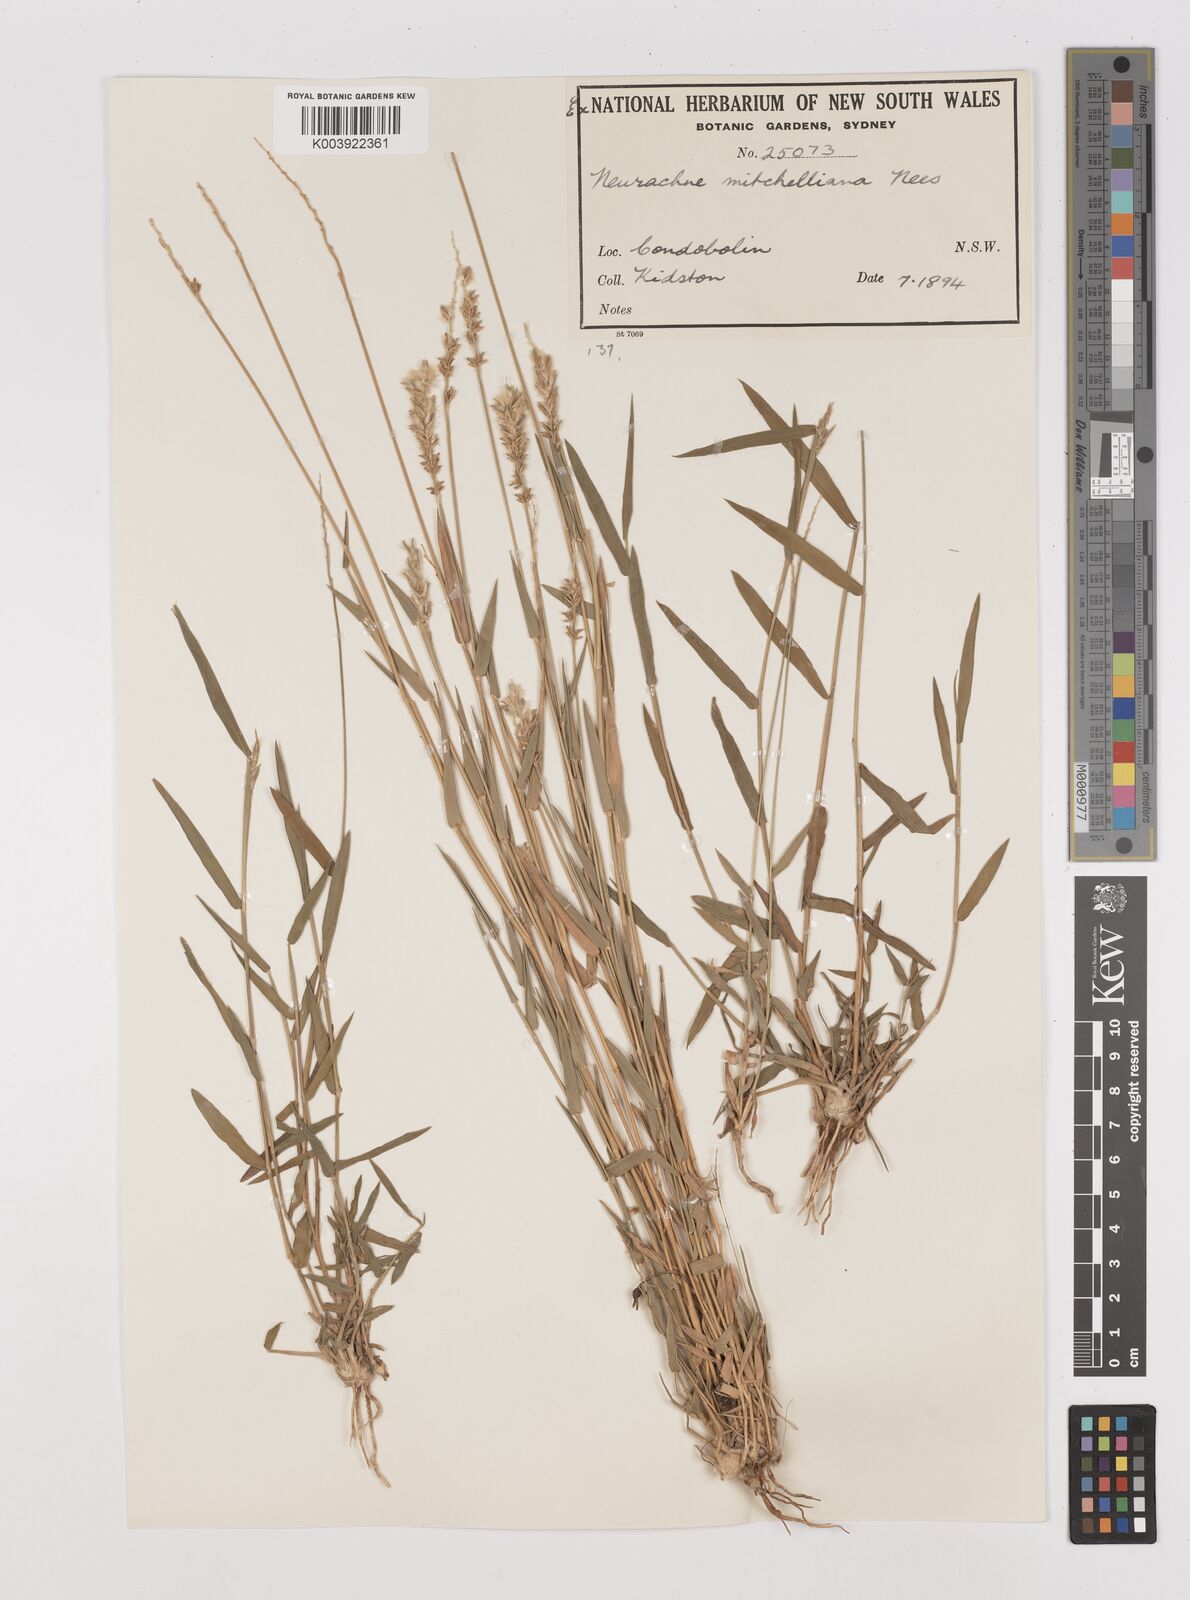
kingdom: Plantae
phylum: Tracheophyta
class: Liliopsida
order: Poales
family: Poaceae
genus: Thyridolepis
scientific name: Thyridolepis mitchelliana
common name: Rock tassel grass
